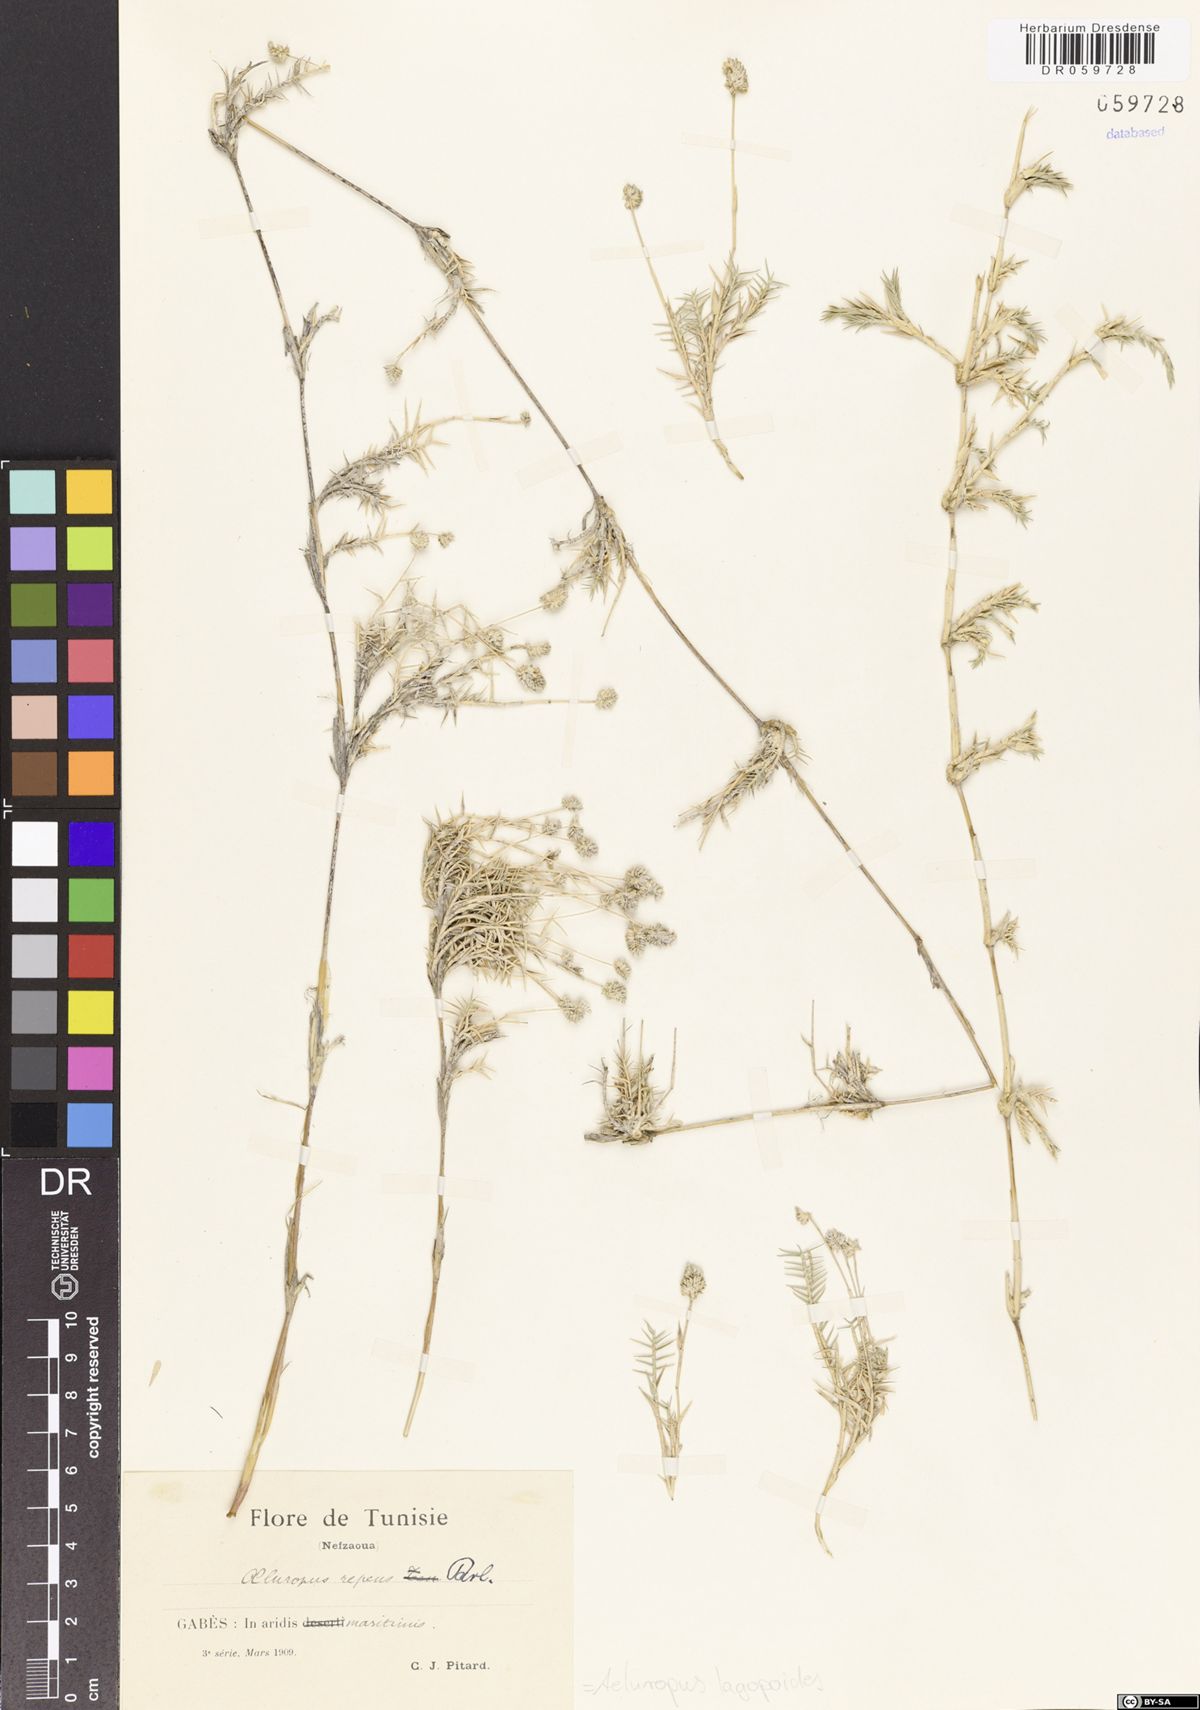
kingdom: Plantae
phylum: Tracheophyta
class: Liliopsida
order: Poales
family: Poaceae
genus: Aeluropus
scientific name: Aeluropus lagopoides
